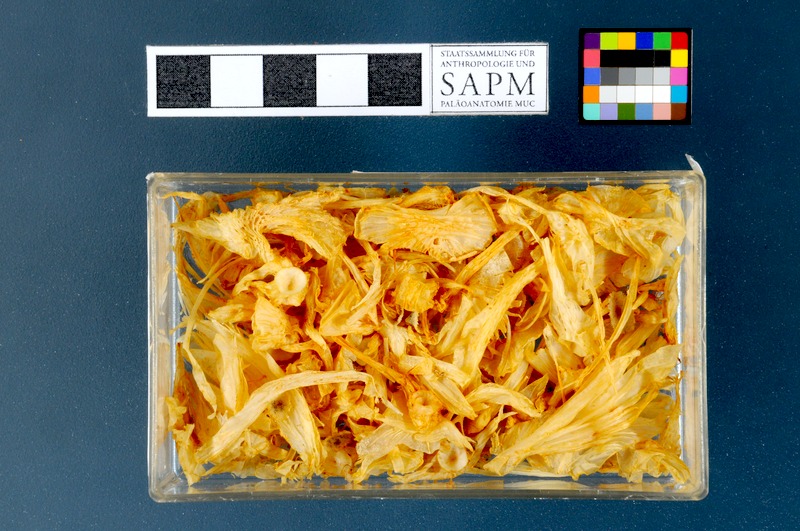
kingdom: Animalia
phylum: Chordata
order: Scorpaeniformes
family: Cyclopteridae
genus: Cyclopterus
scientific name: Cyclopterus lumpus
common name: Lumpsucker
